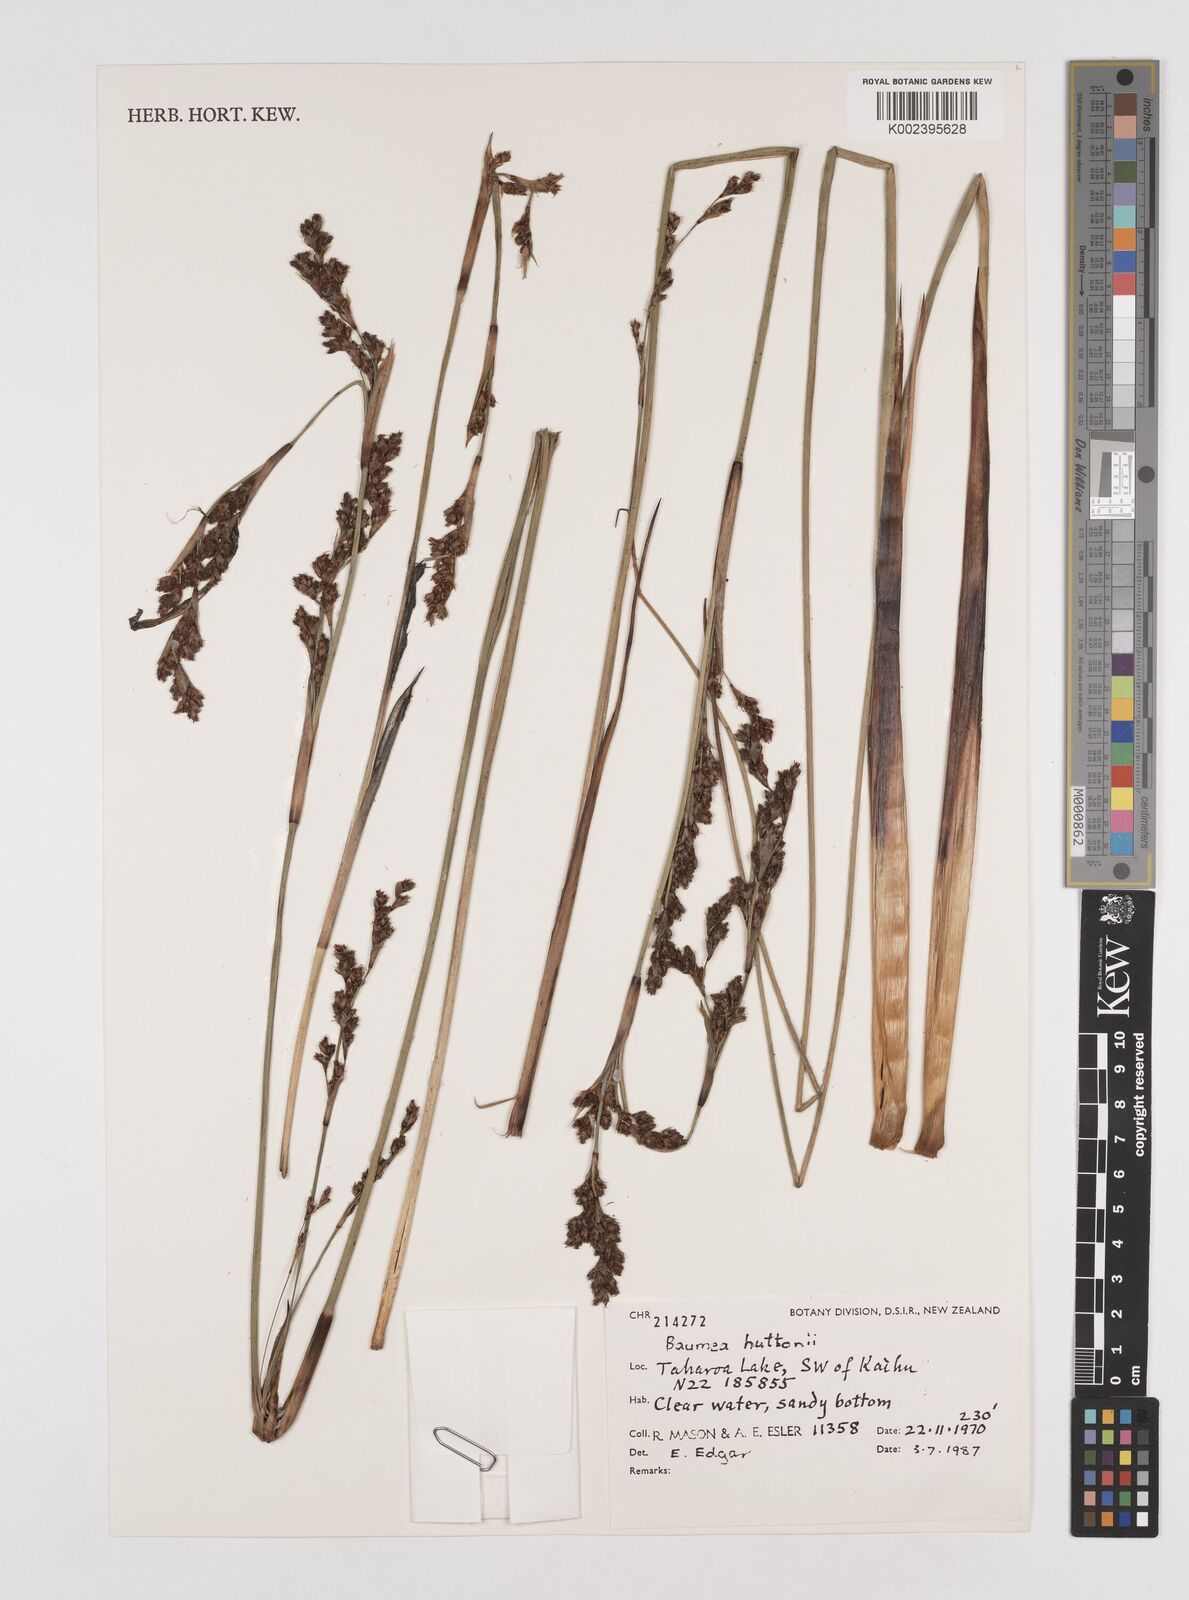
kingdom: Plantae
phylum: Tracheophyta
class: Liliopsida
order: Poales
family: Cyperaceae
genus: Machaerina
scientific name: Machaerina huttonii
